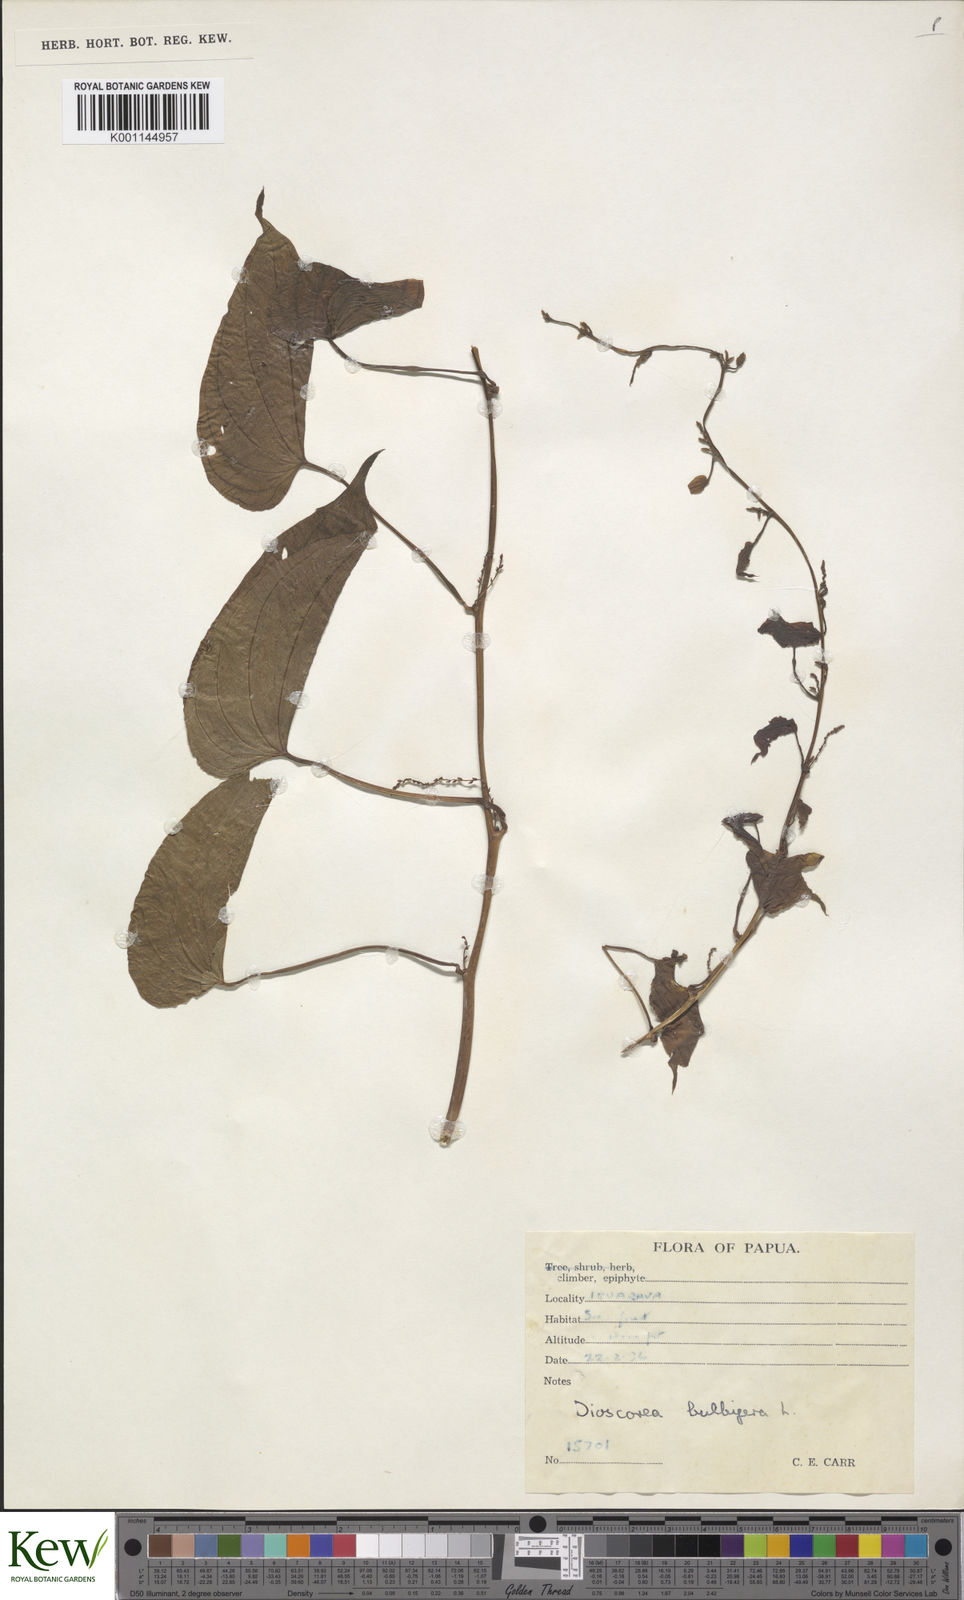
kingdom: Plantae
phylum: Tracheophyta
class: Liliopsida
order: Dioscoreales
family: Dioscoreaceae
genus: Dioscorea
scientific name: Dioscorea bulbifera
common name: Air yam
